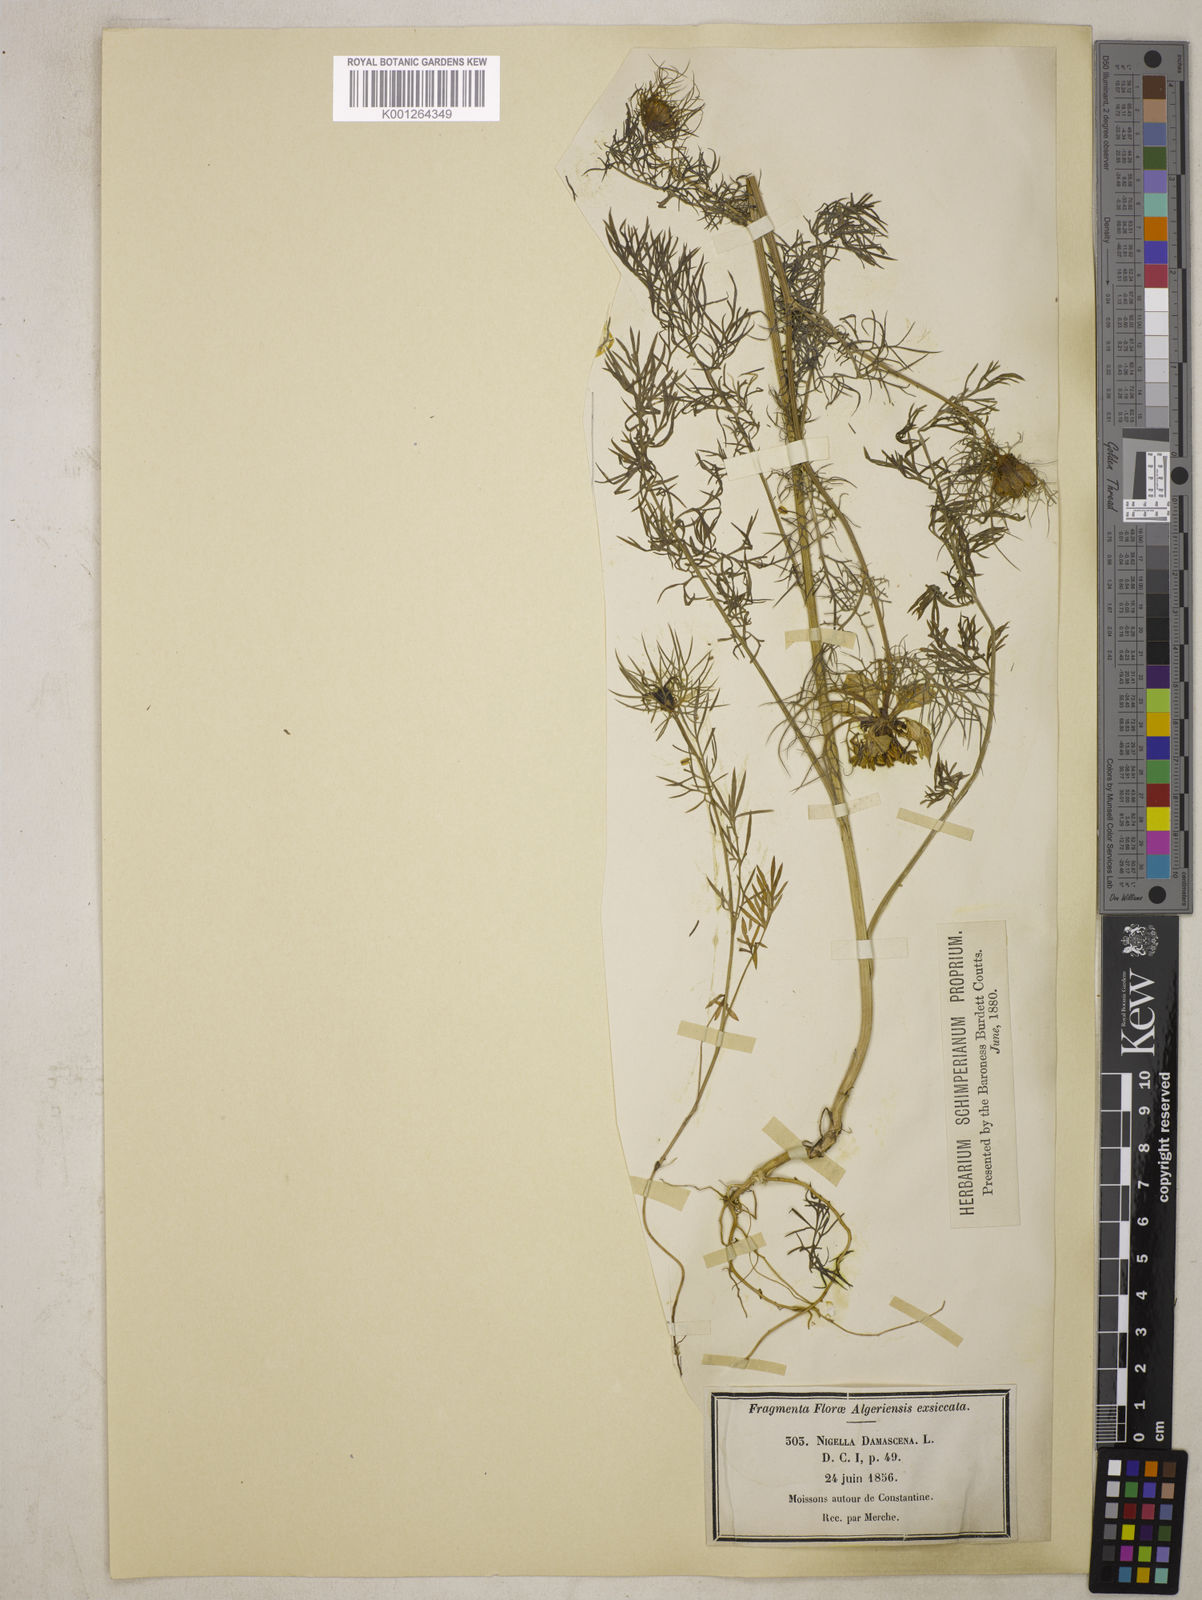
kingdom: Plantae
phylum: Tracheophyta
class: Magnoliopsida
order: Ranunculales
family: Ranunculaceae
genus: Nigella
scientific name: Nigella damascena
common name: Love-in-a-mist
